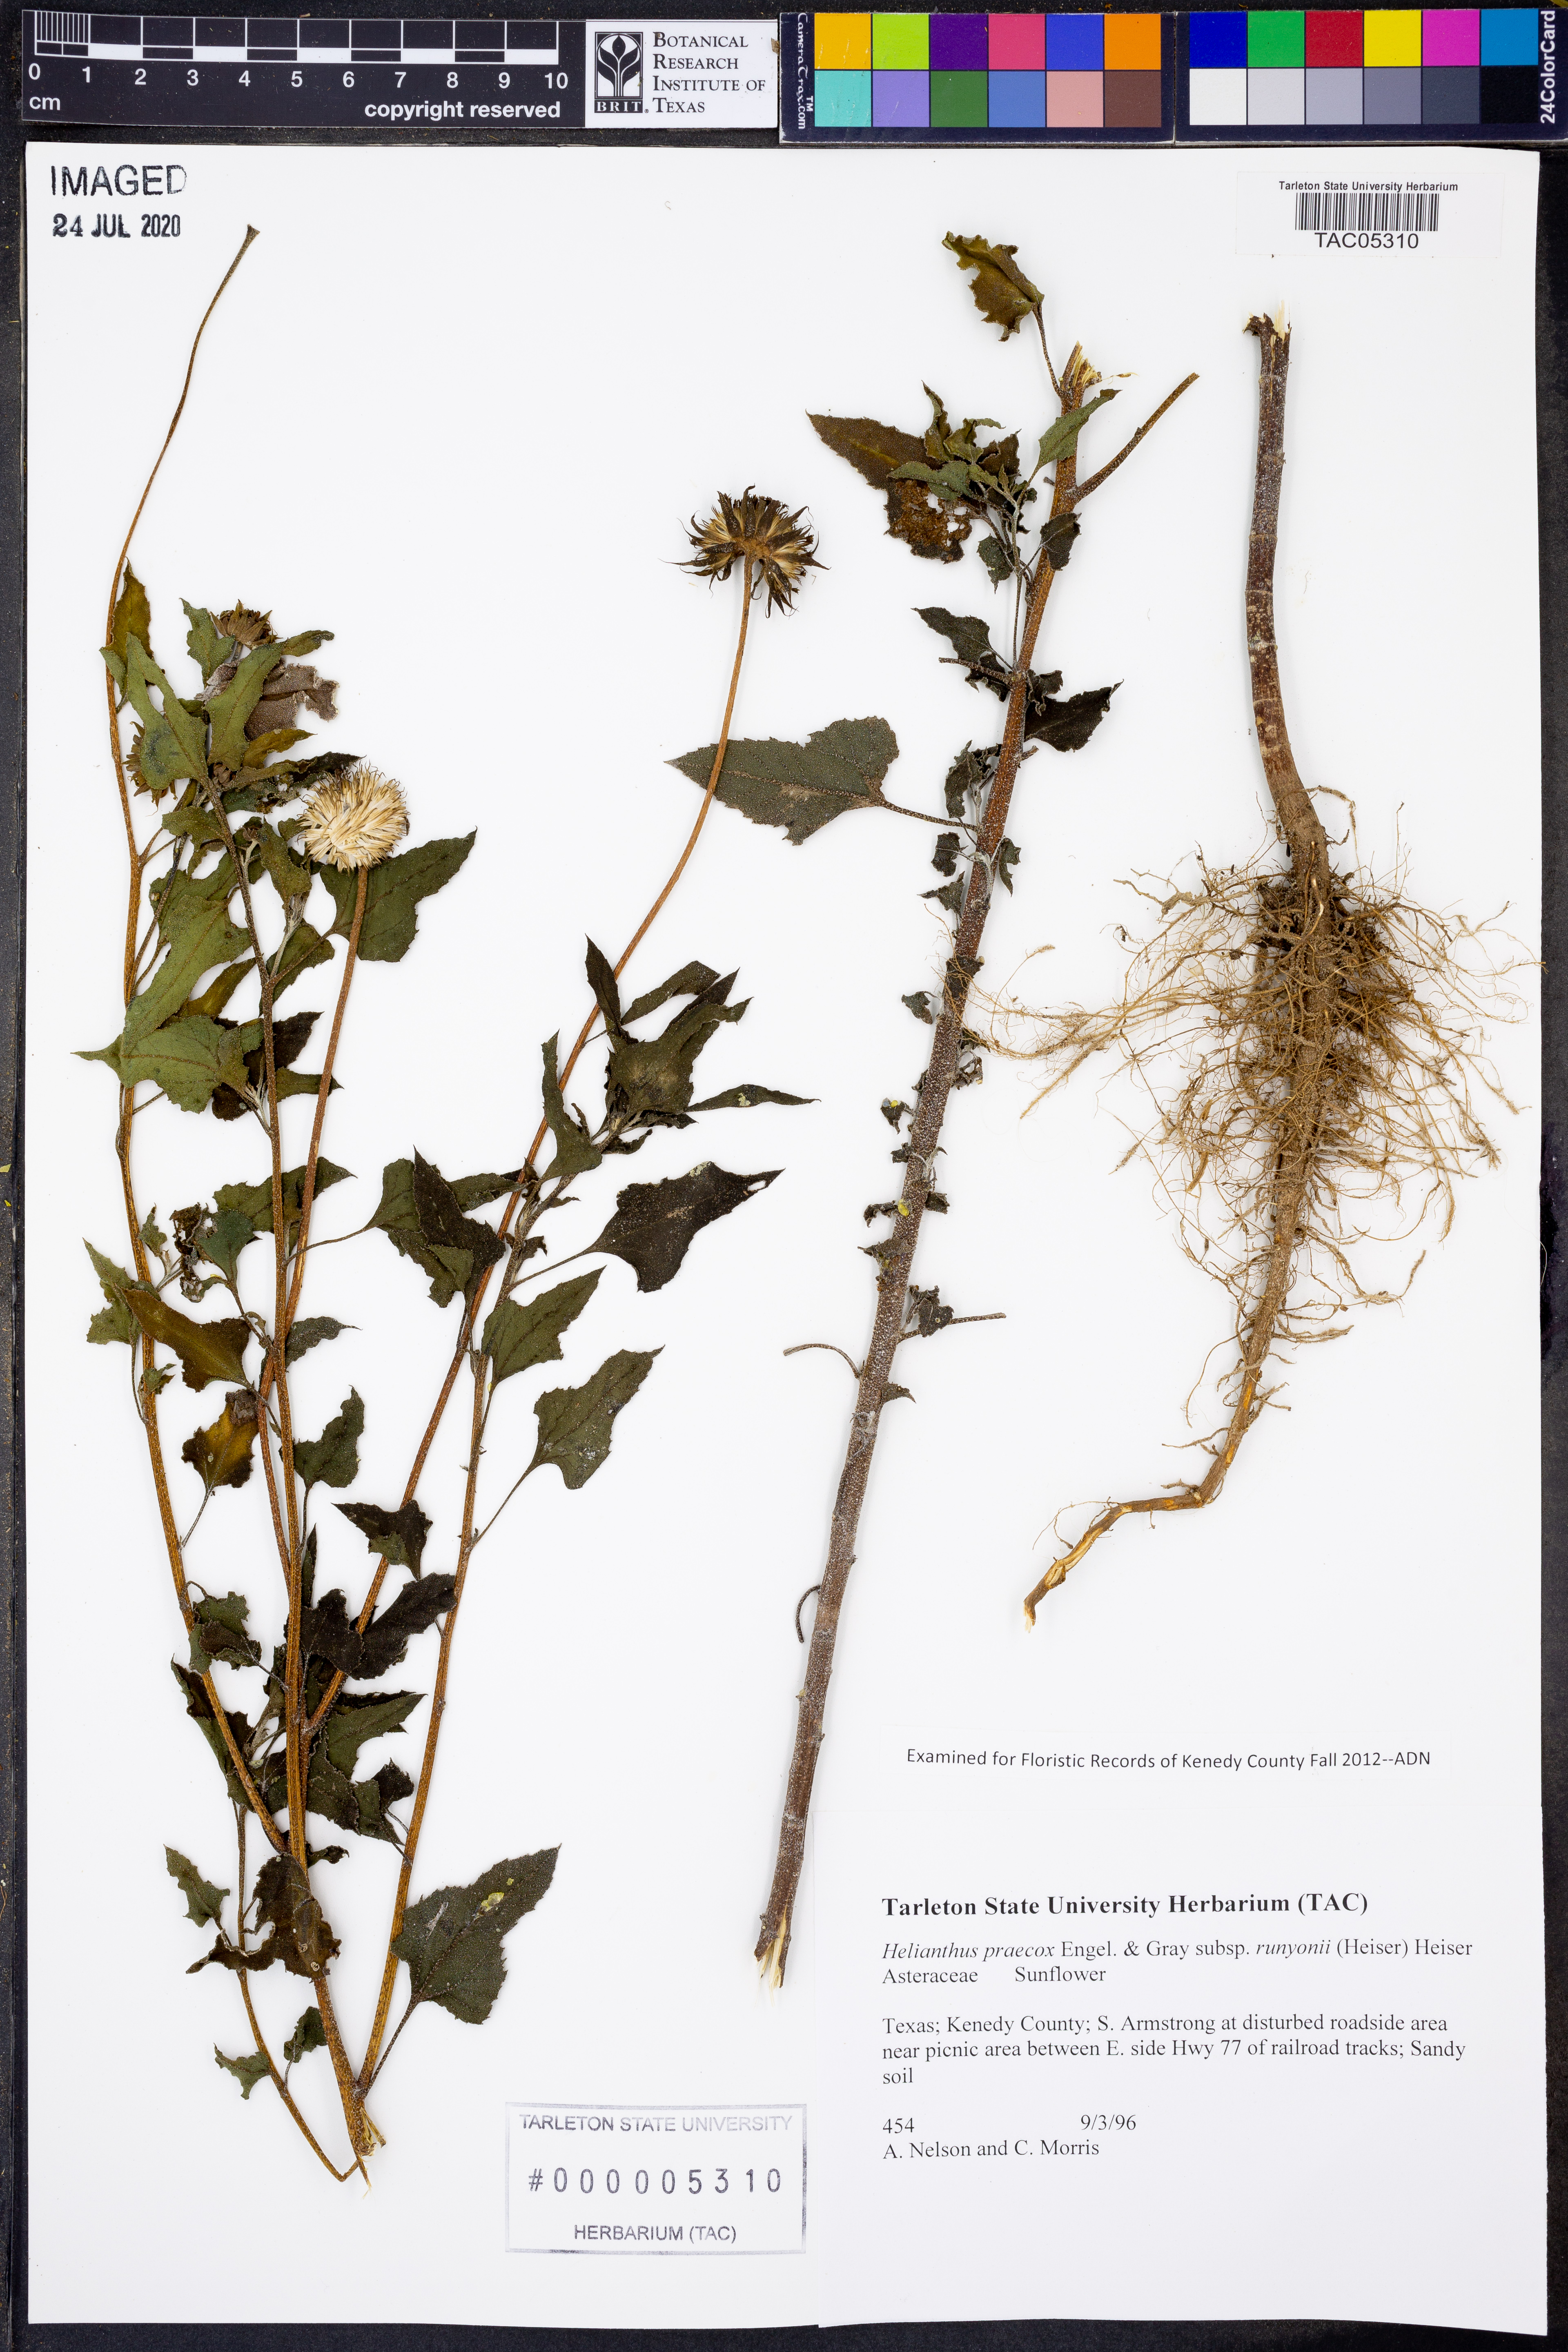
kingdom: Plantae
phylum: Tracheophyta
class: Magnoliopsida
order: Asterales
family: Asteraceae
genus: Helianthus
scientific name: Helianthus praecox
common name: Texas sunflower
